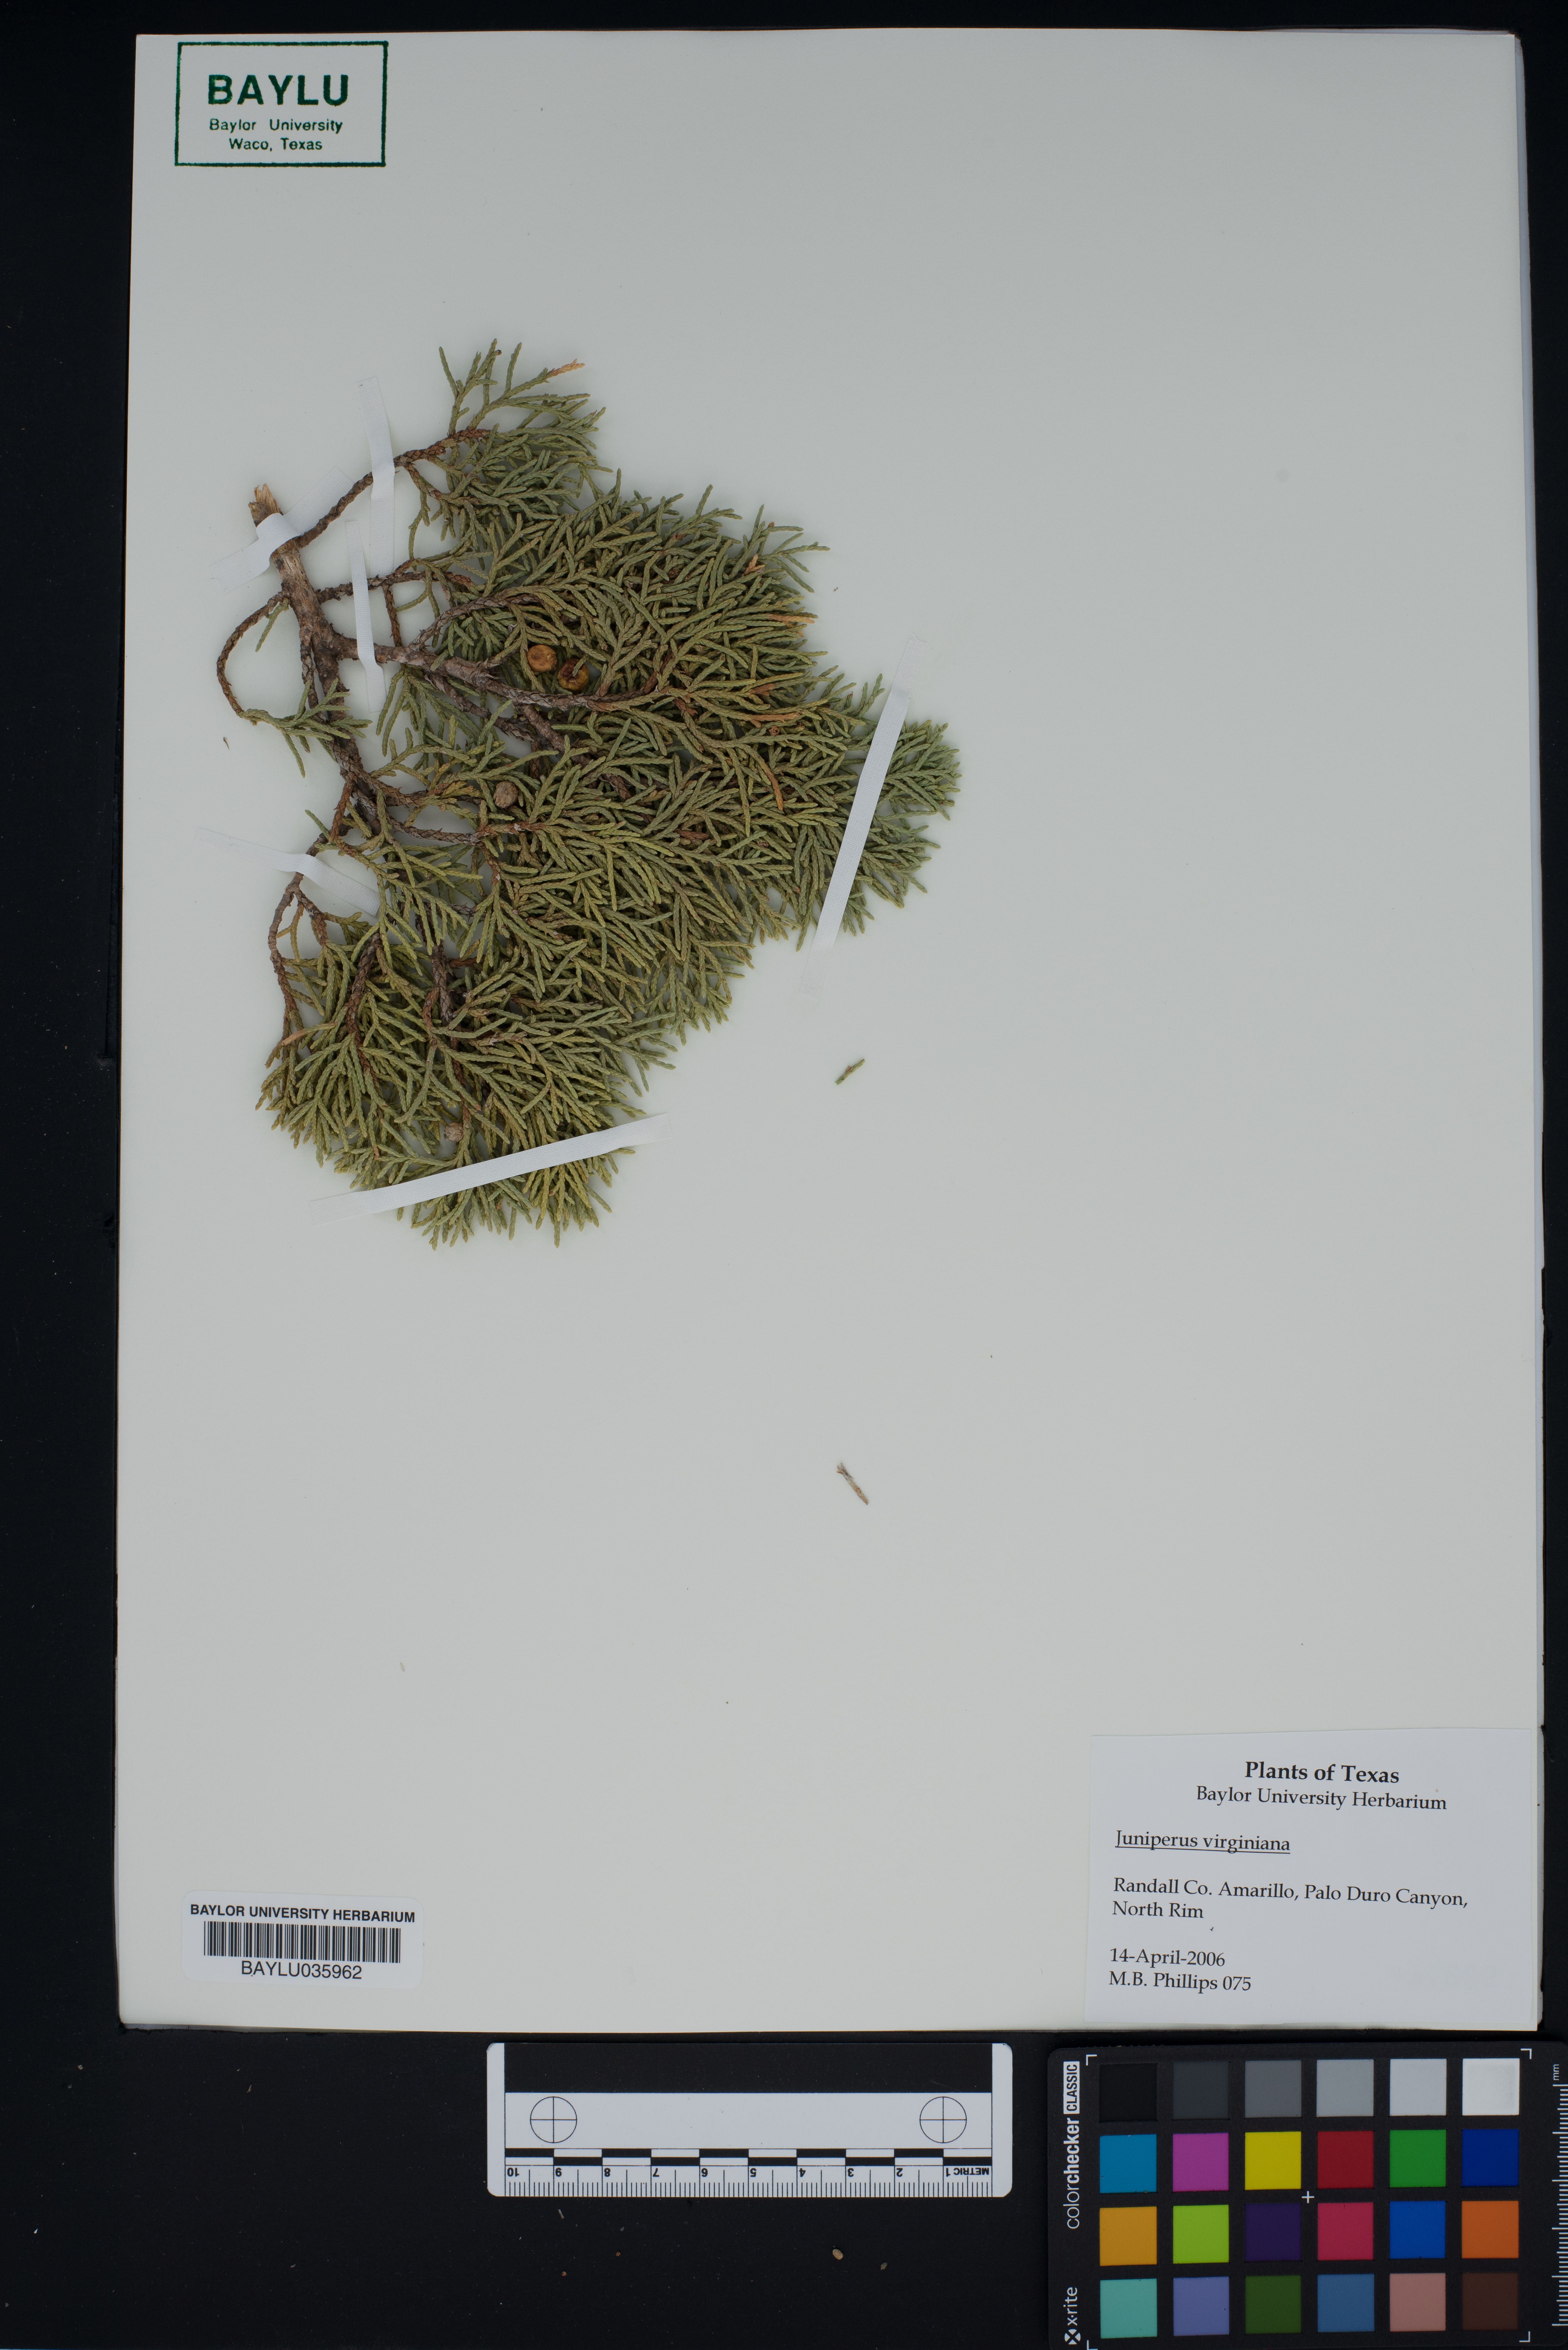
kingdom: Plantae
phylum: Tracheophyta
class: Pinopsida
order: Pinales
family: Cupressaceae
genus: Juniperus
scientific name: Juniperus virginiana
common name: Red juniper
